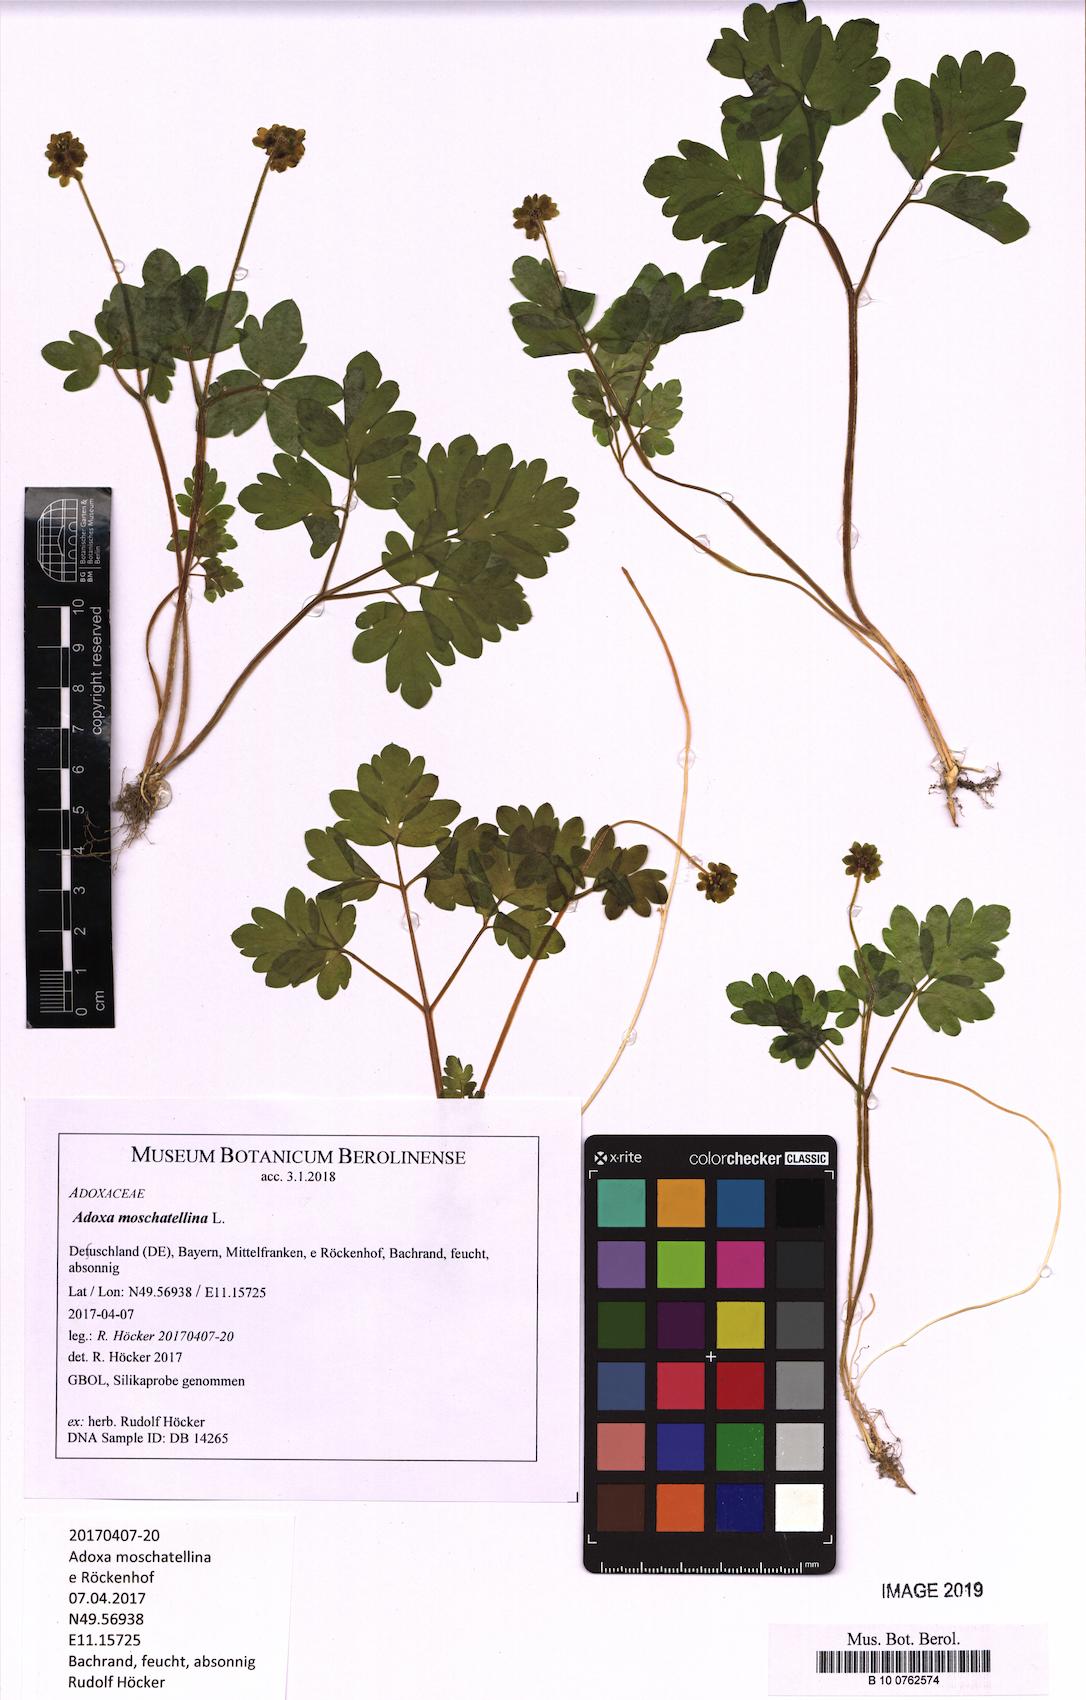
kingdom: Plantae
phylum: Tracheophyta
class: Magnoliopsida
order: Dipsacales
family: Viburnaceae
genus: Adoxa
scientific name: Adoxa moschatellina
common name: Moschatel
